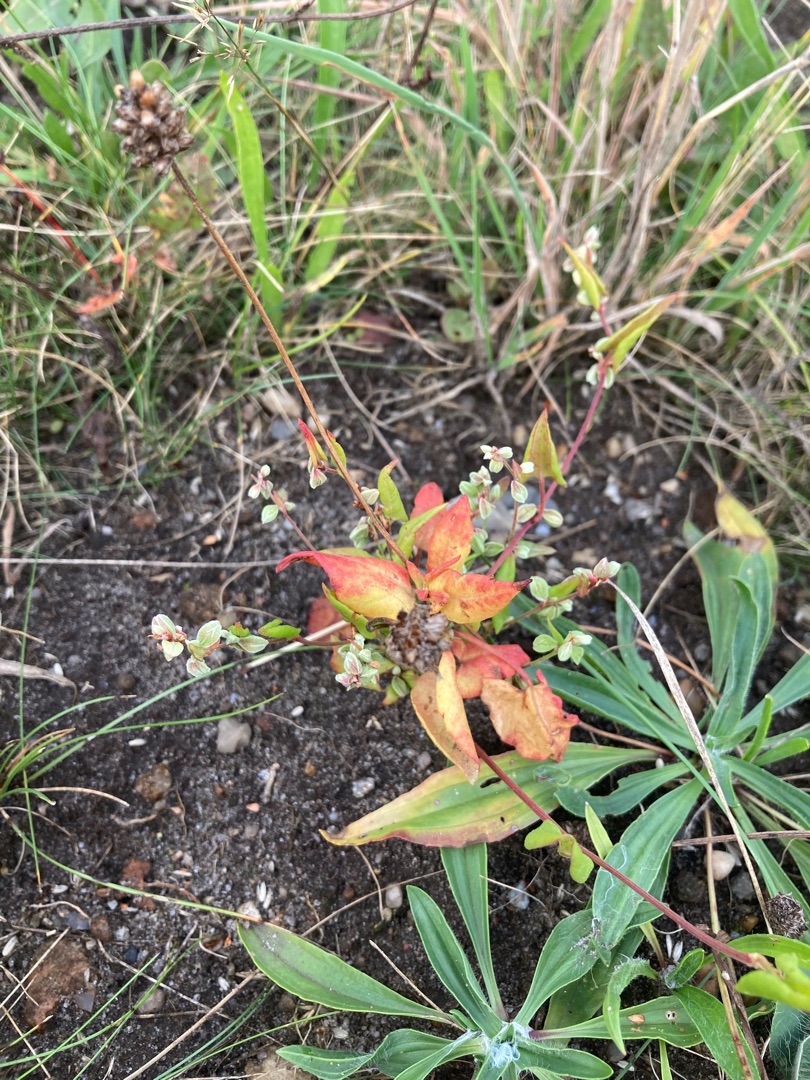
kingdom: Plantae
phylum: Tracheophyta
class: Magnoliopsida
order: Caryophyllales
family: Polygonaceae
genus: Fallopia
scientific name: Fallopia convolvulus
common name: Snerle-pileurt
